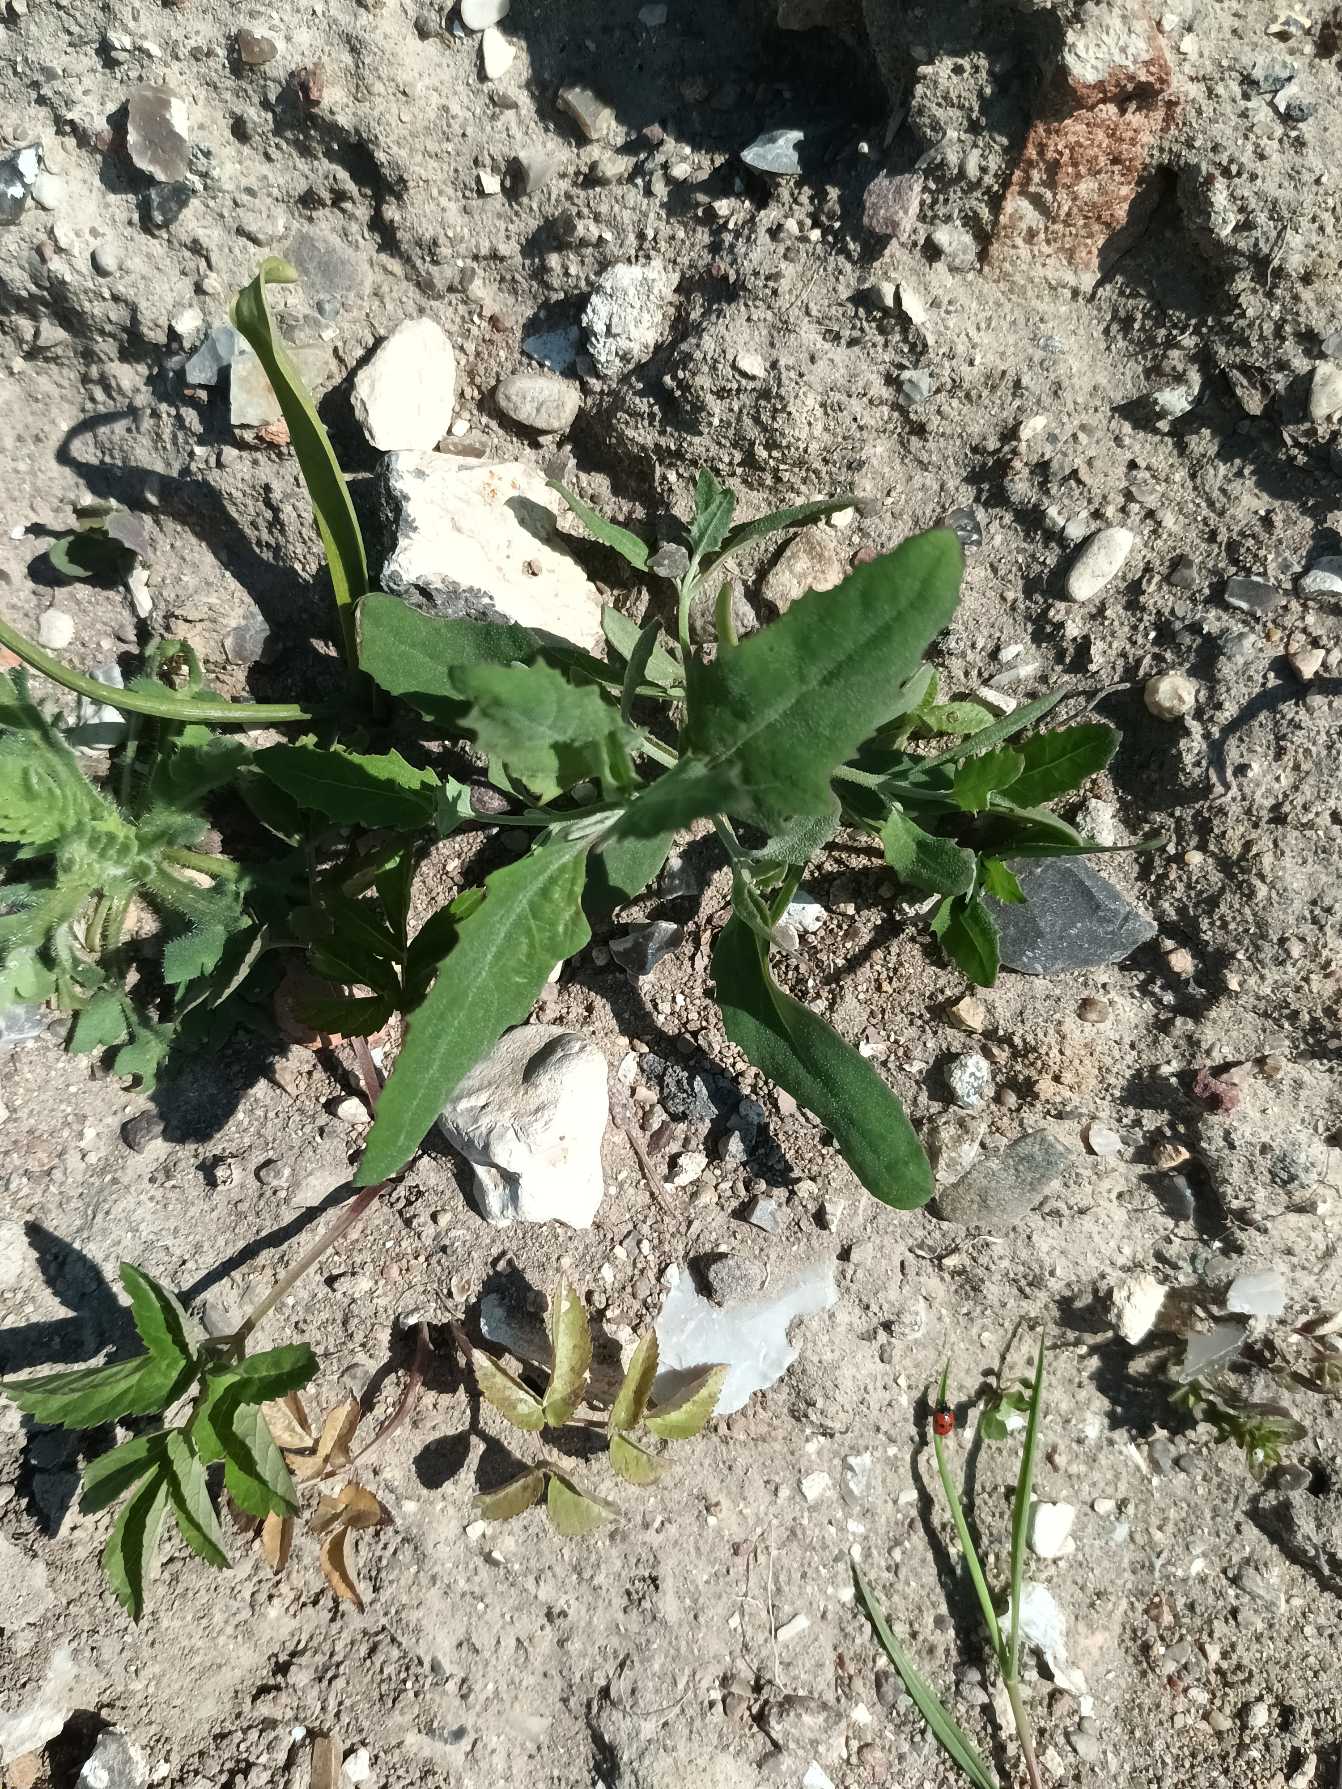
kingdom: Plantae
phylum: Tracheophyta
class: Magnoliopsida
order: Caryophyllales
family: Amaranthaceae
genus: Atriplex
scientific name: Atriplex patula
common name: Svine-mælde
